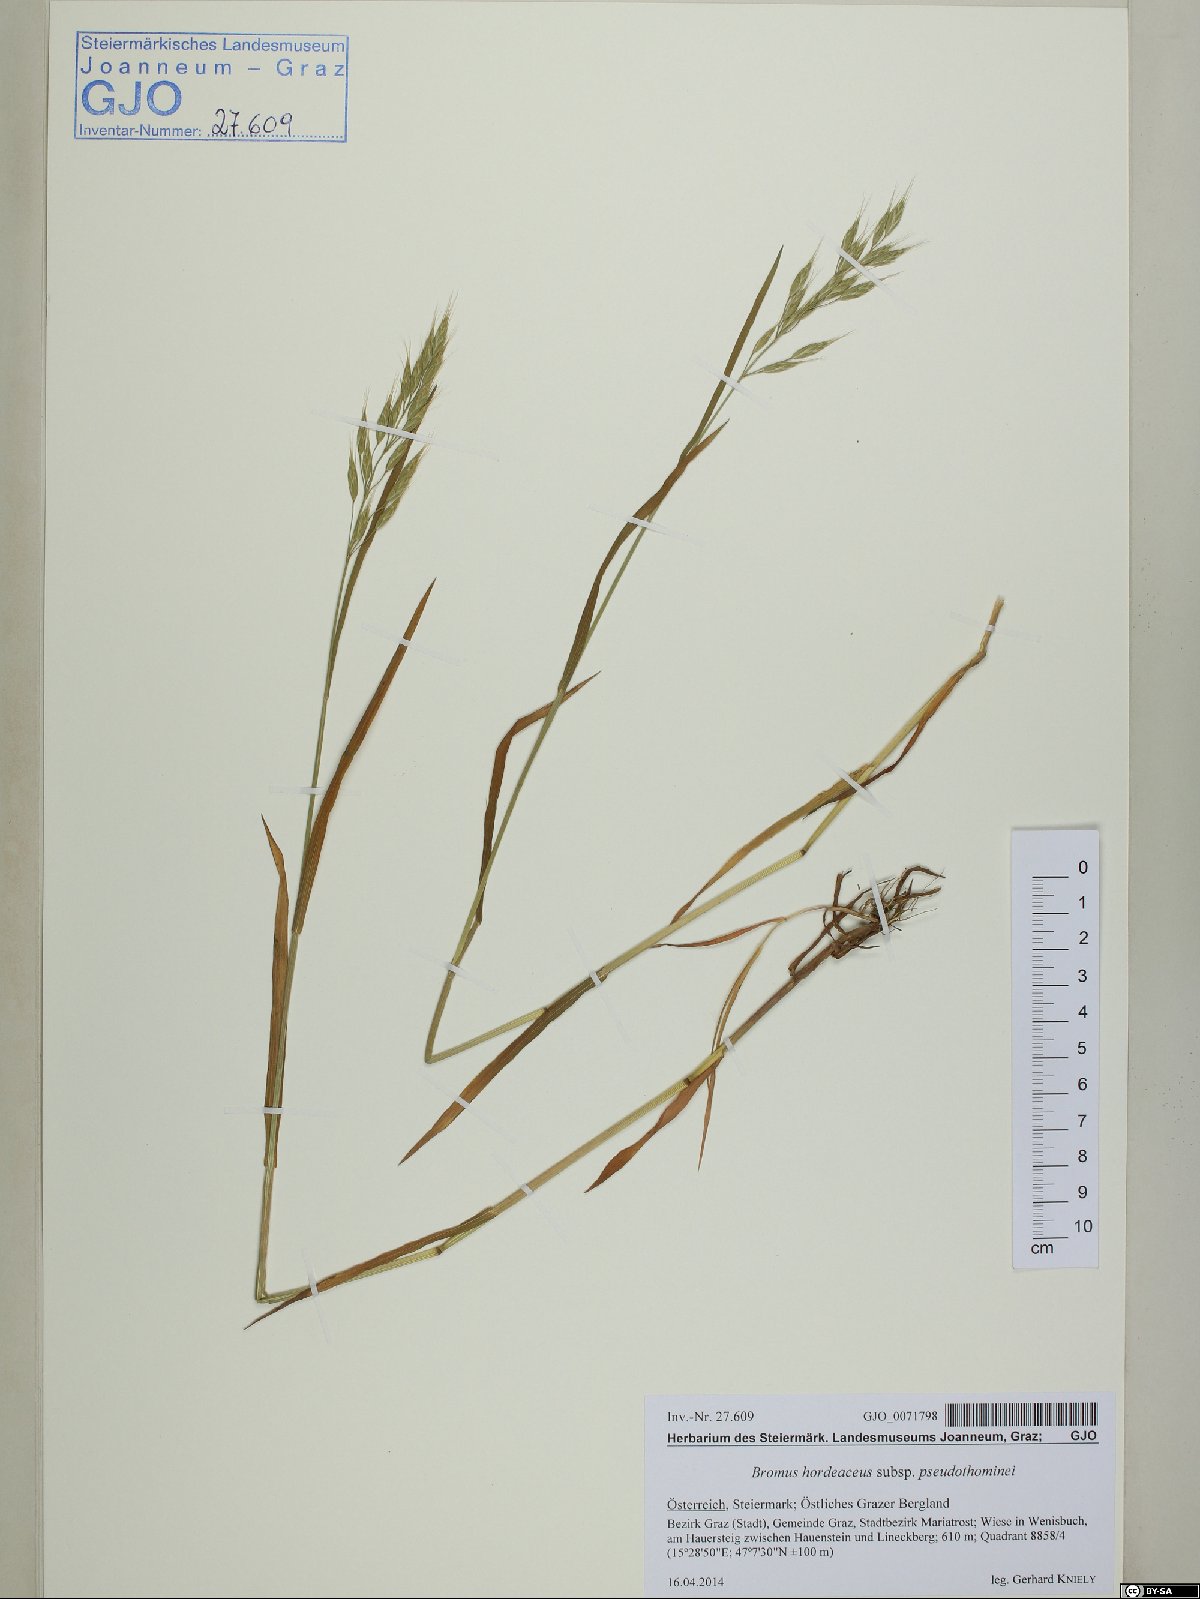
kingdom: Plantae
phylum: Tracheophyta
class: Liliopsida
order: Poales
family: Poaceae
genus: Bromus
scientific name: Bromus ferronii
